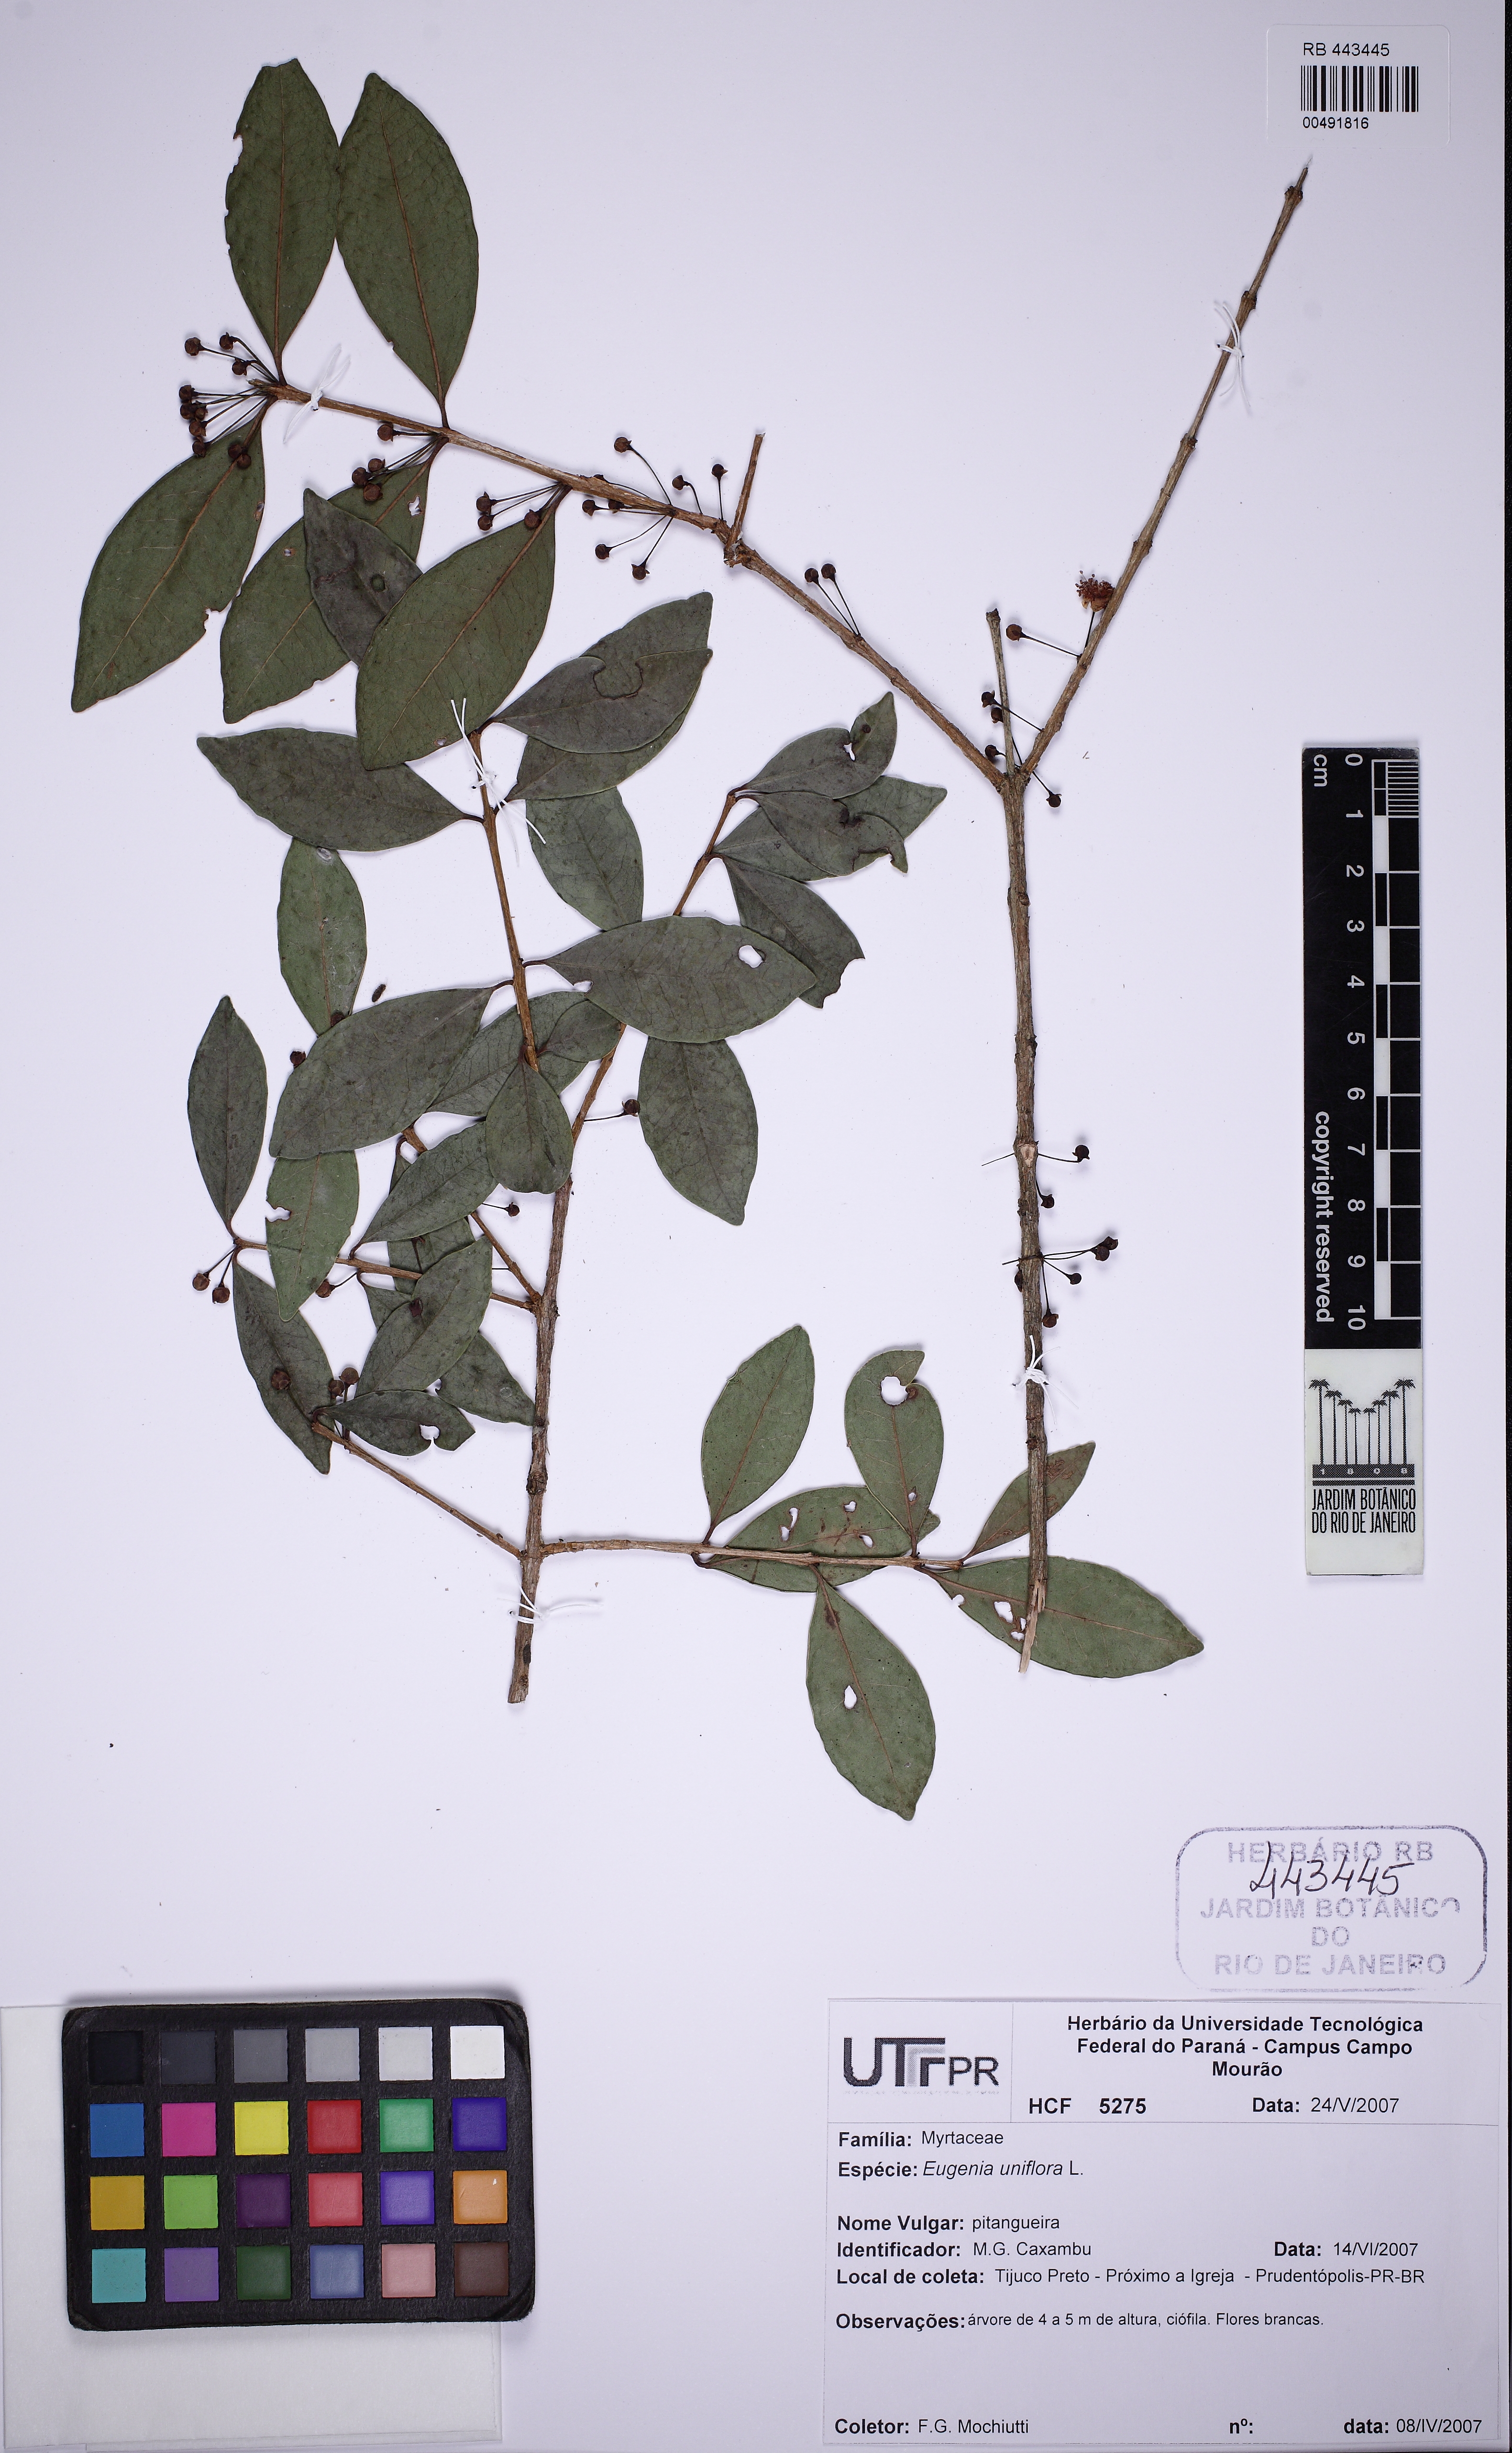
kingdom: Plantae
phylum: Tracheophyta
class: Magnoliopsida
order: Myrtales
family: Myrtaceae
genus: Eugenia
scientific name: Eugenia uniflora
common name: Surinam cherry
